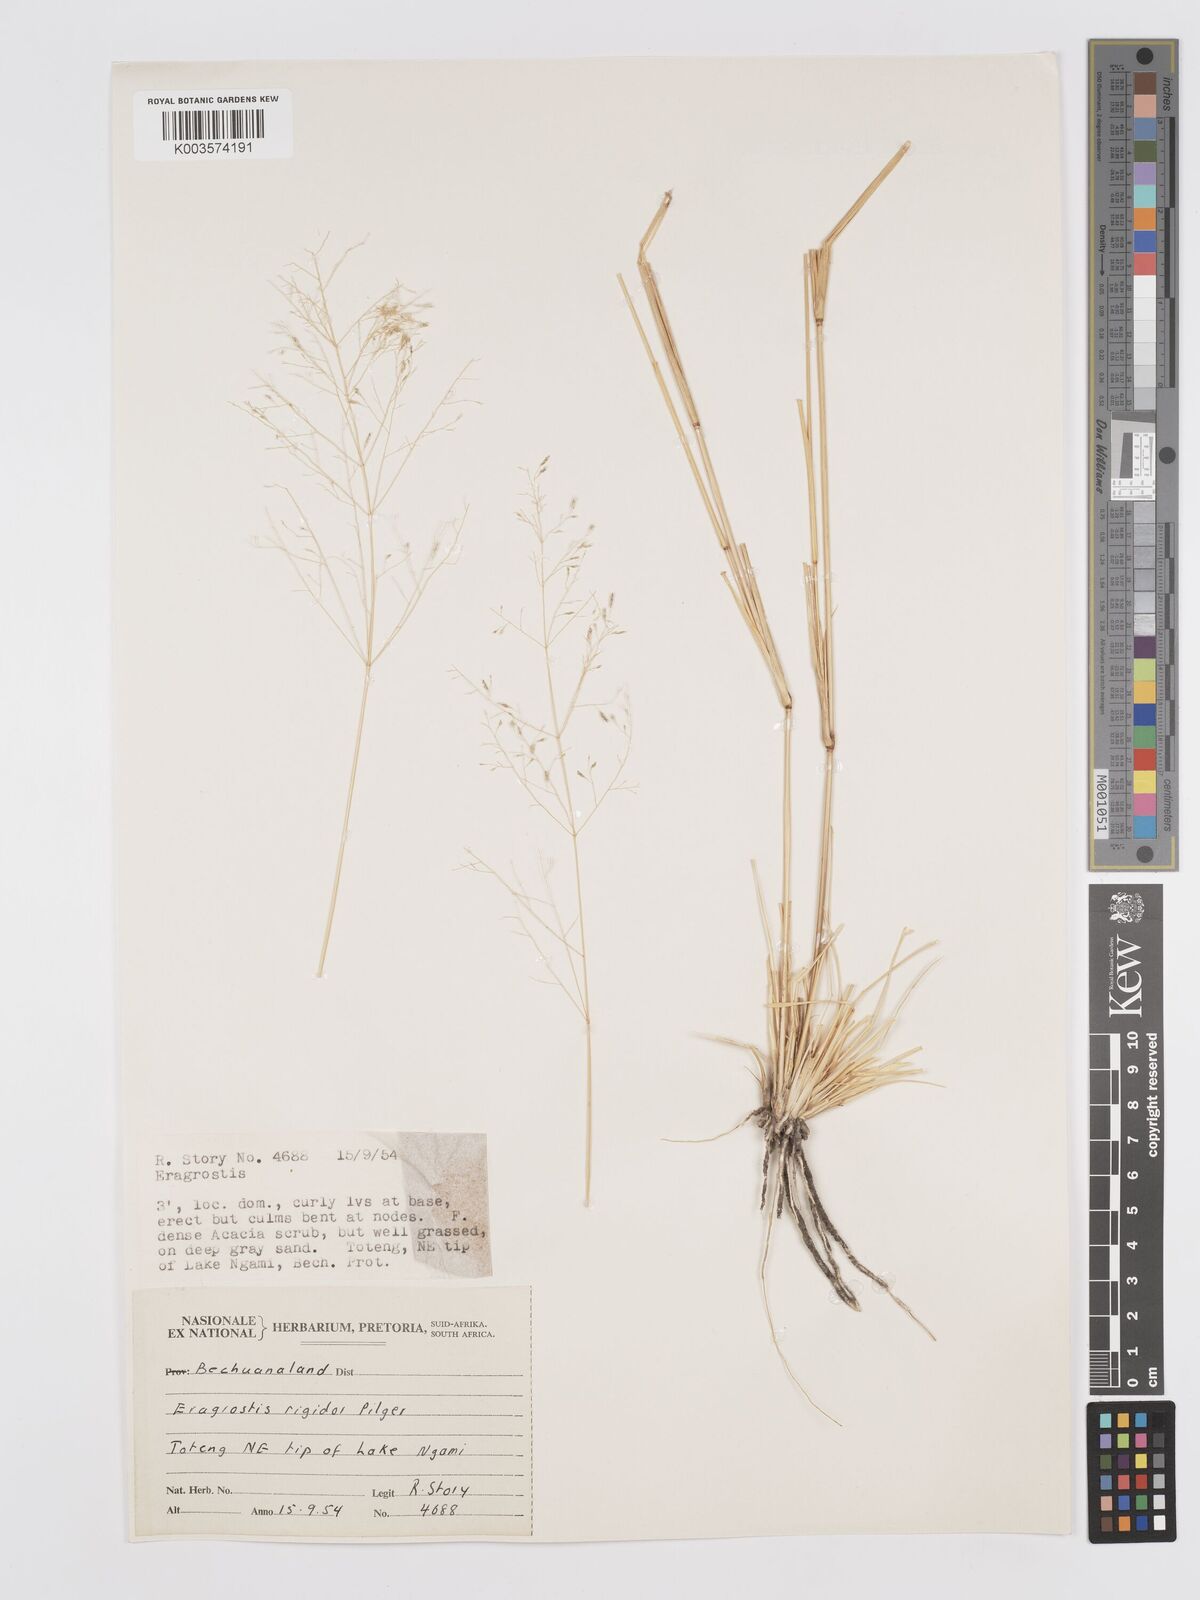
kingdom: Plantae
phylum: Tracheophyta
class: Liliopsida
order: Poales
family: Poaceae
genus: Eragrostis
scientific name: Eragrostis cylindriflora
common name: Cylinderflower lovegrass
